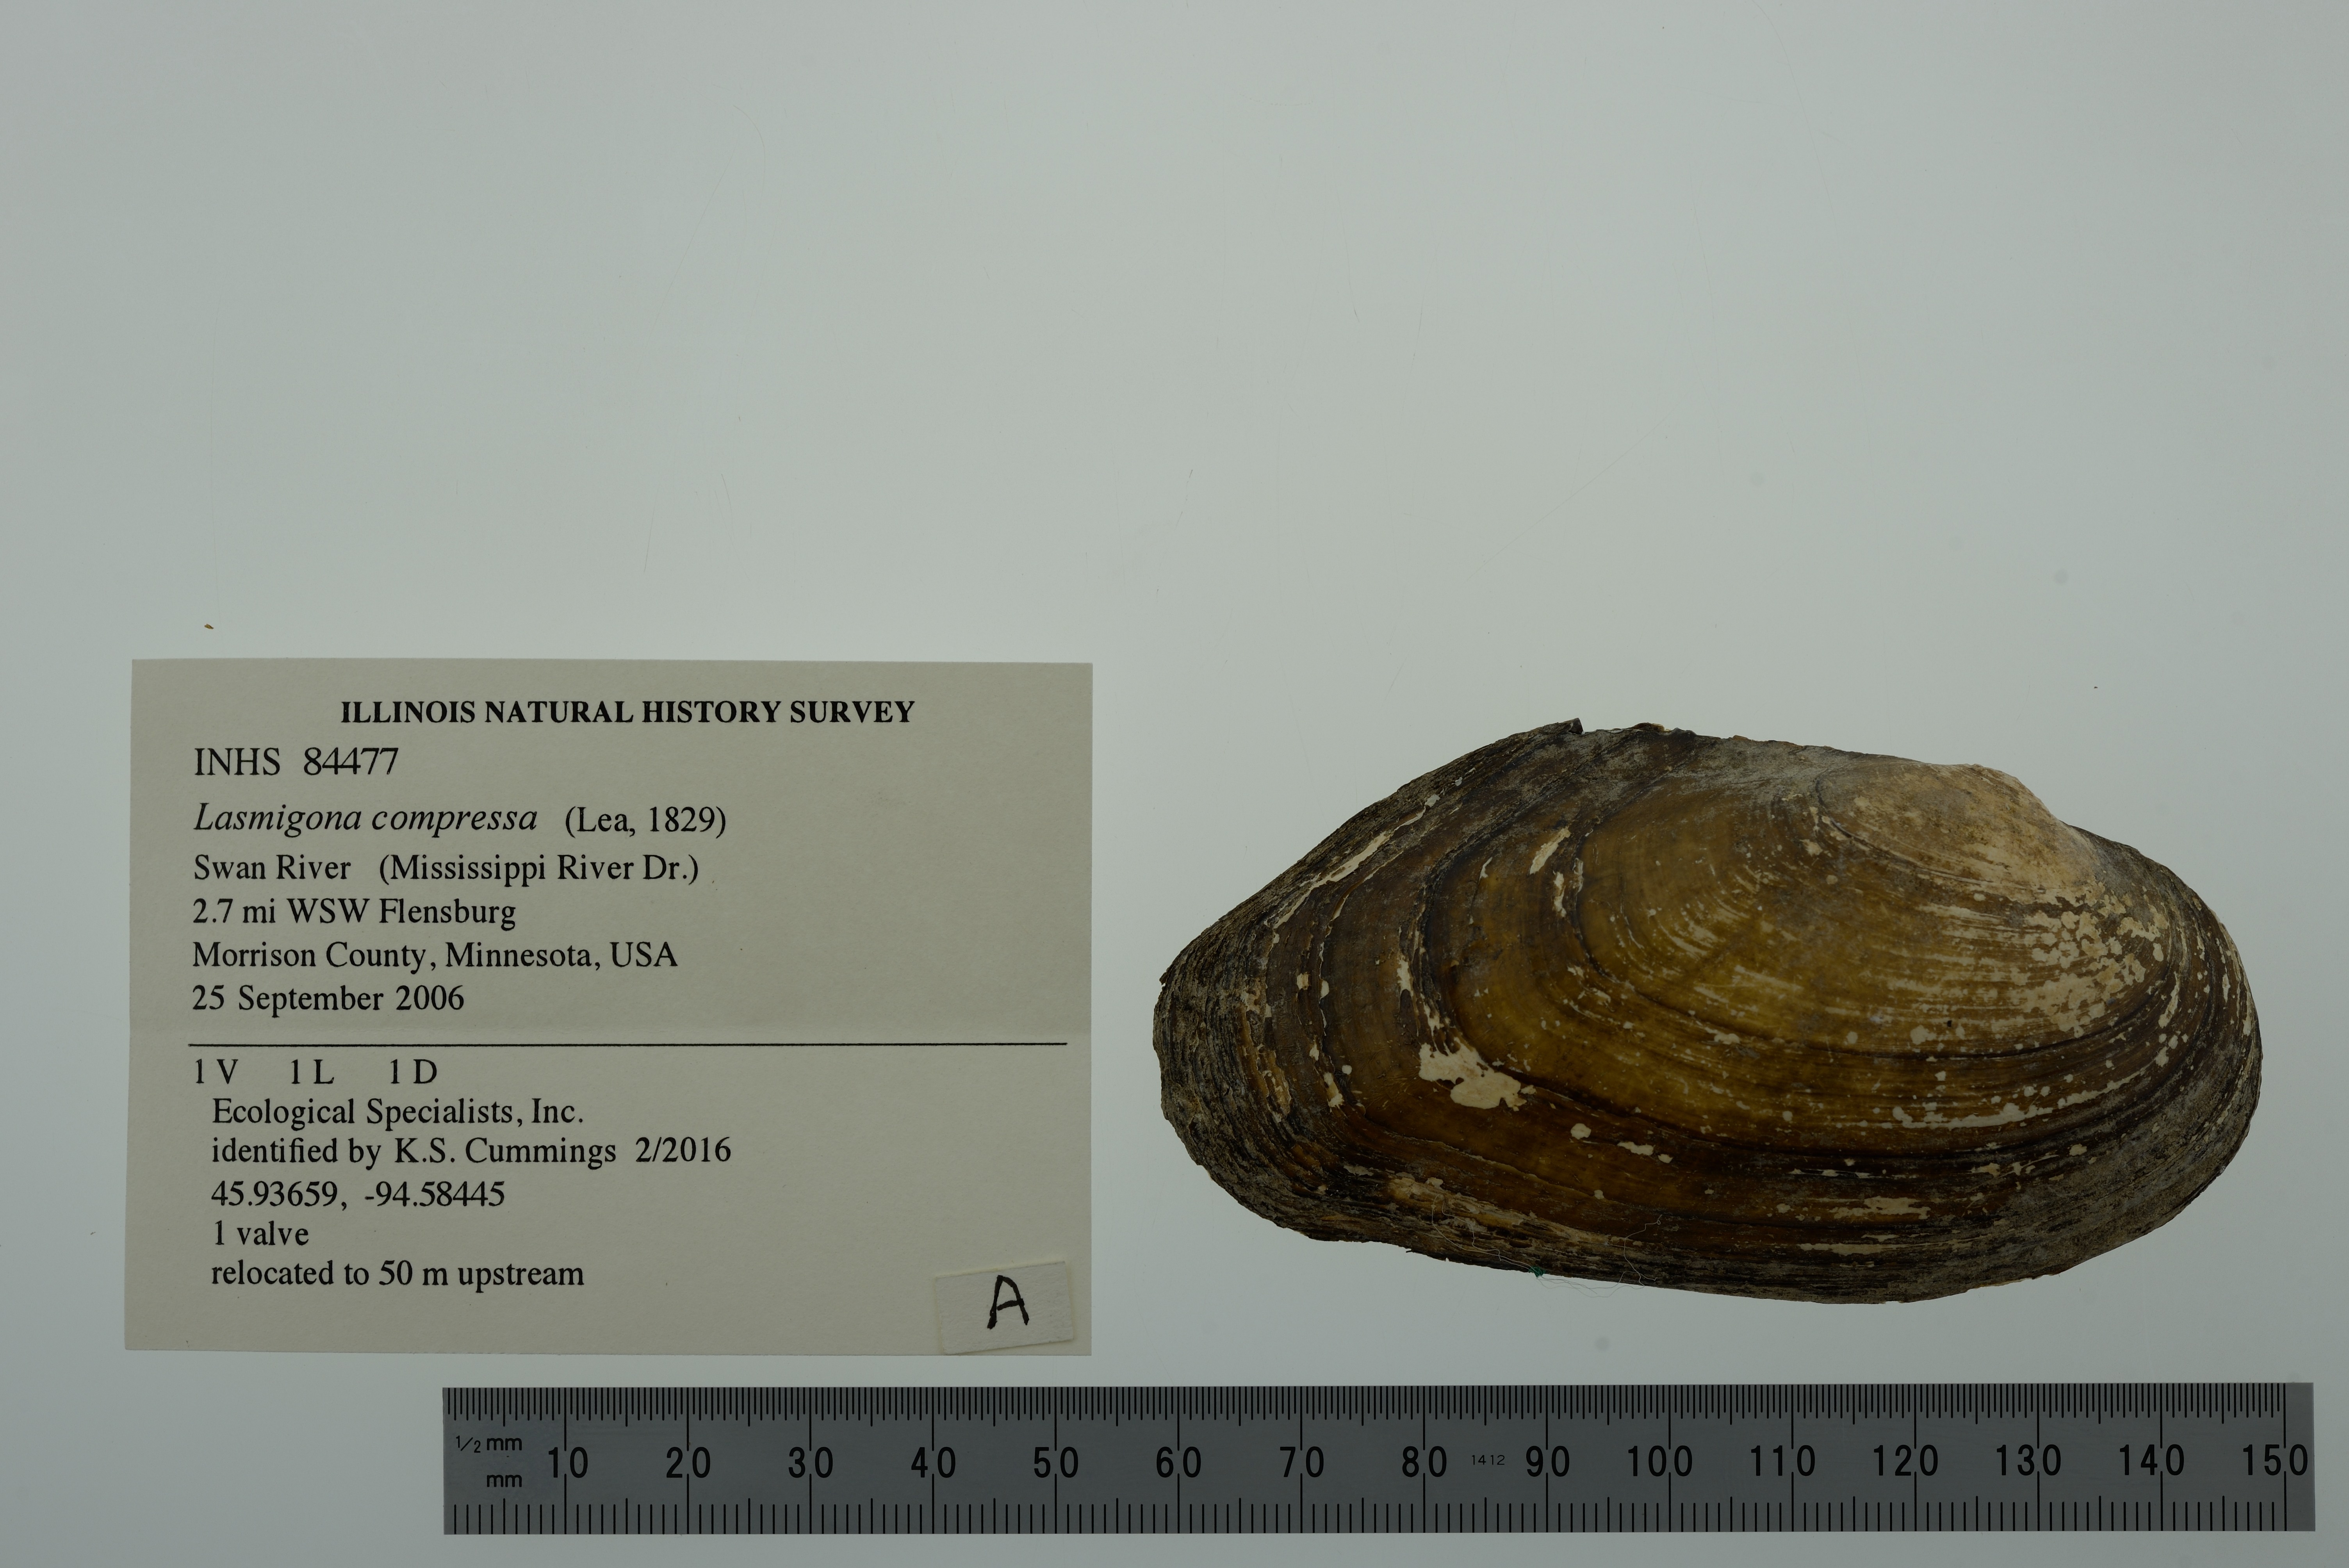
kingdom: Animalia
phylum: Mollusca
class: Bivalvia
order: Unionida
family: Unionidae
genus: Lasmigona
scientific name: Lasmigona compressa
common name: Creek heelsplitter
